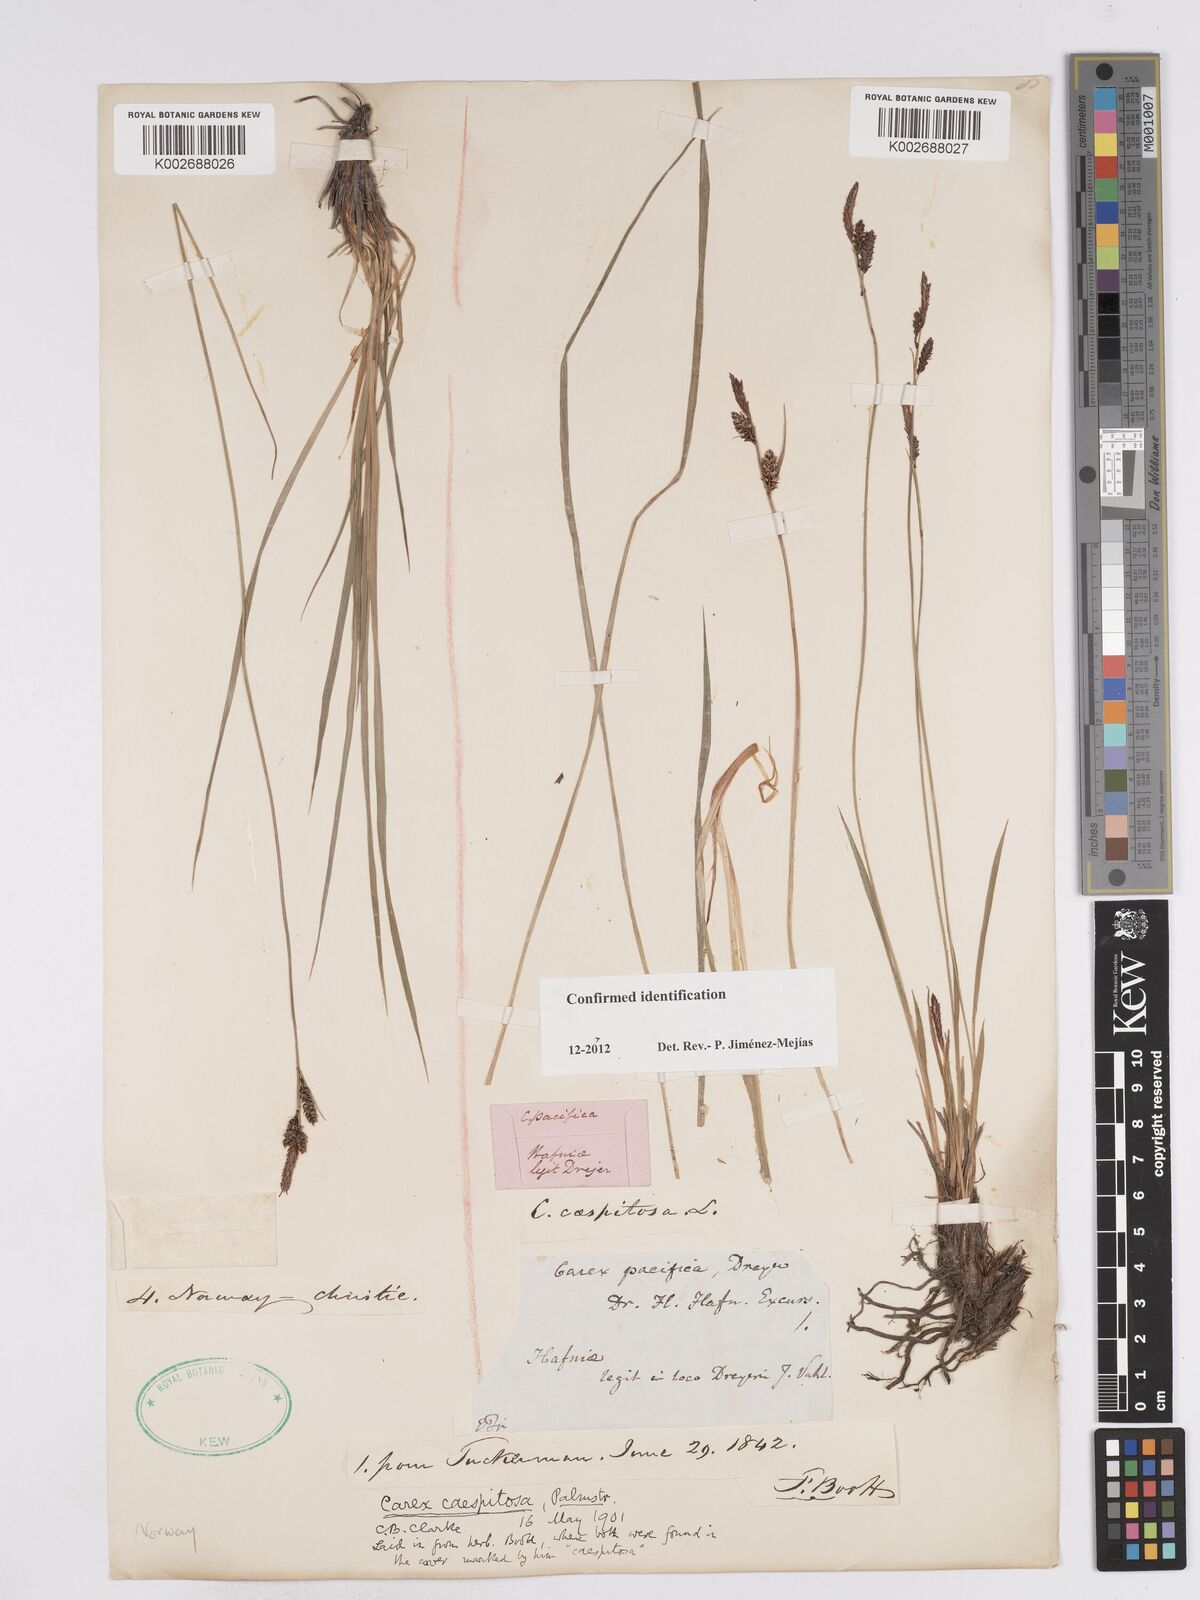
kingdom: Plantae
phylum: Tracheophyta
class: Liliopsida
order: Poales
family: Cyperaceae
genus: Carex
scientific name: Carex nigra
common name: Common sedge
